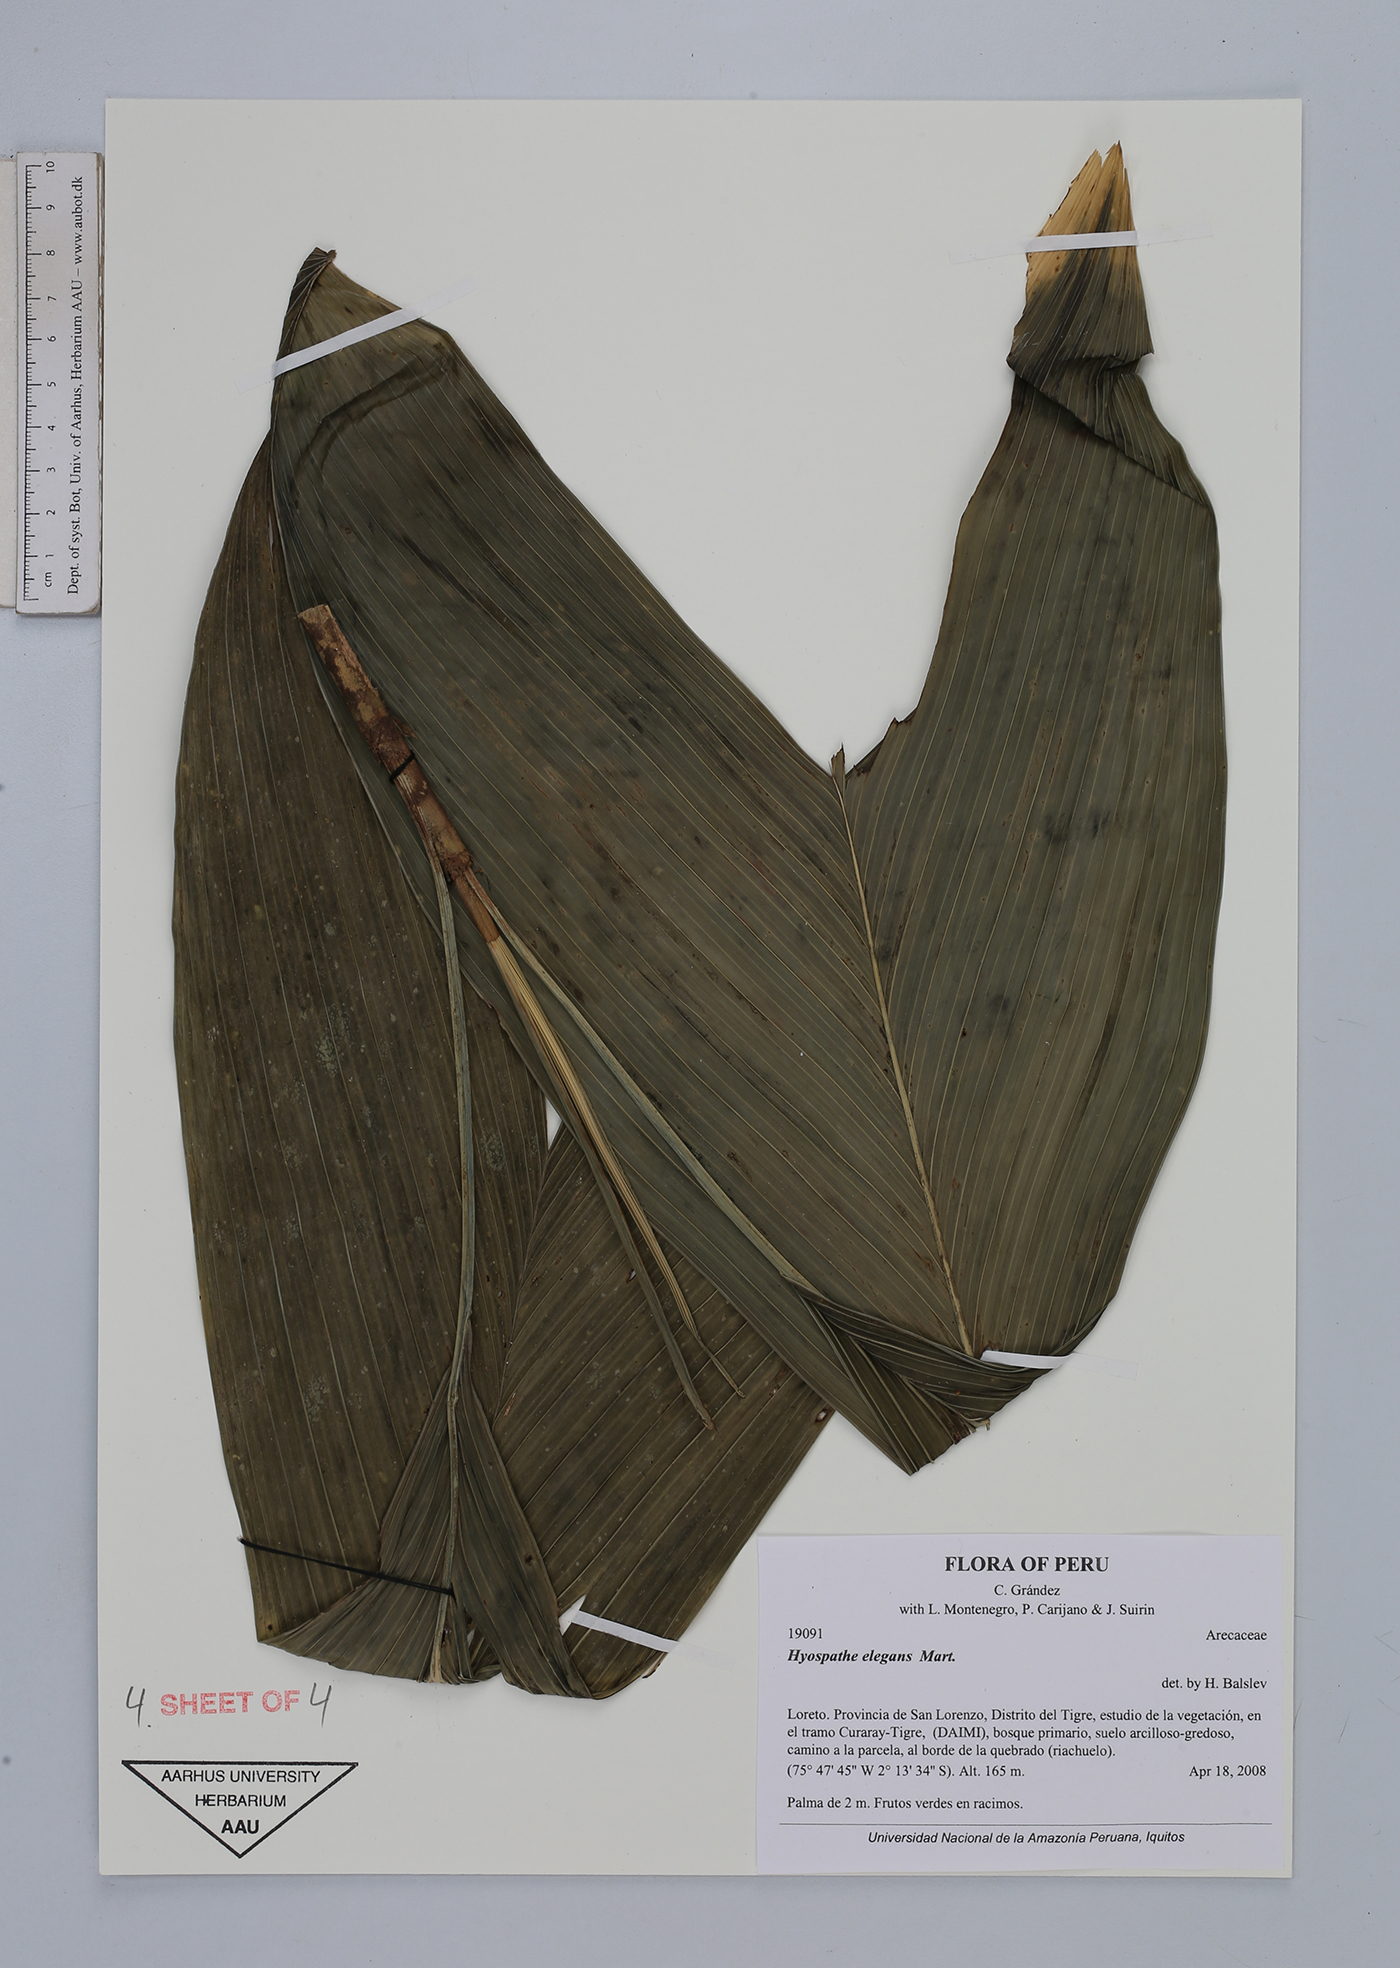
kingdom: Plantae
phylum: Tracheophyta
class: Liliopsida
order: Arecales
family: Arecaceae
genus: Hyospathe
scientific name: Hyospathe elegans
